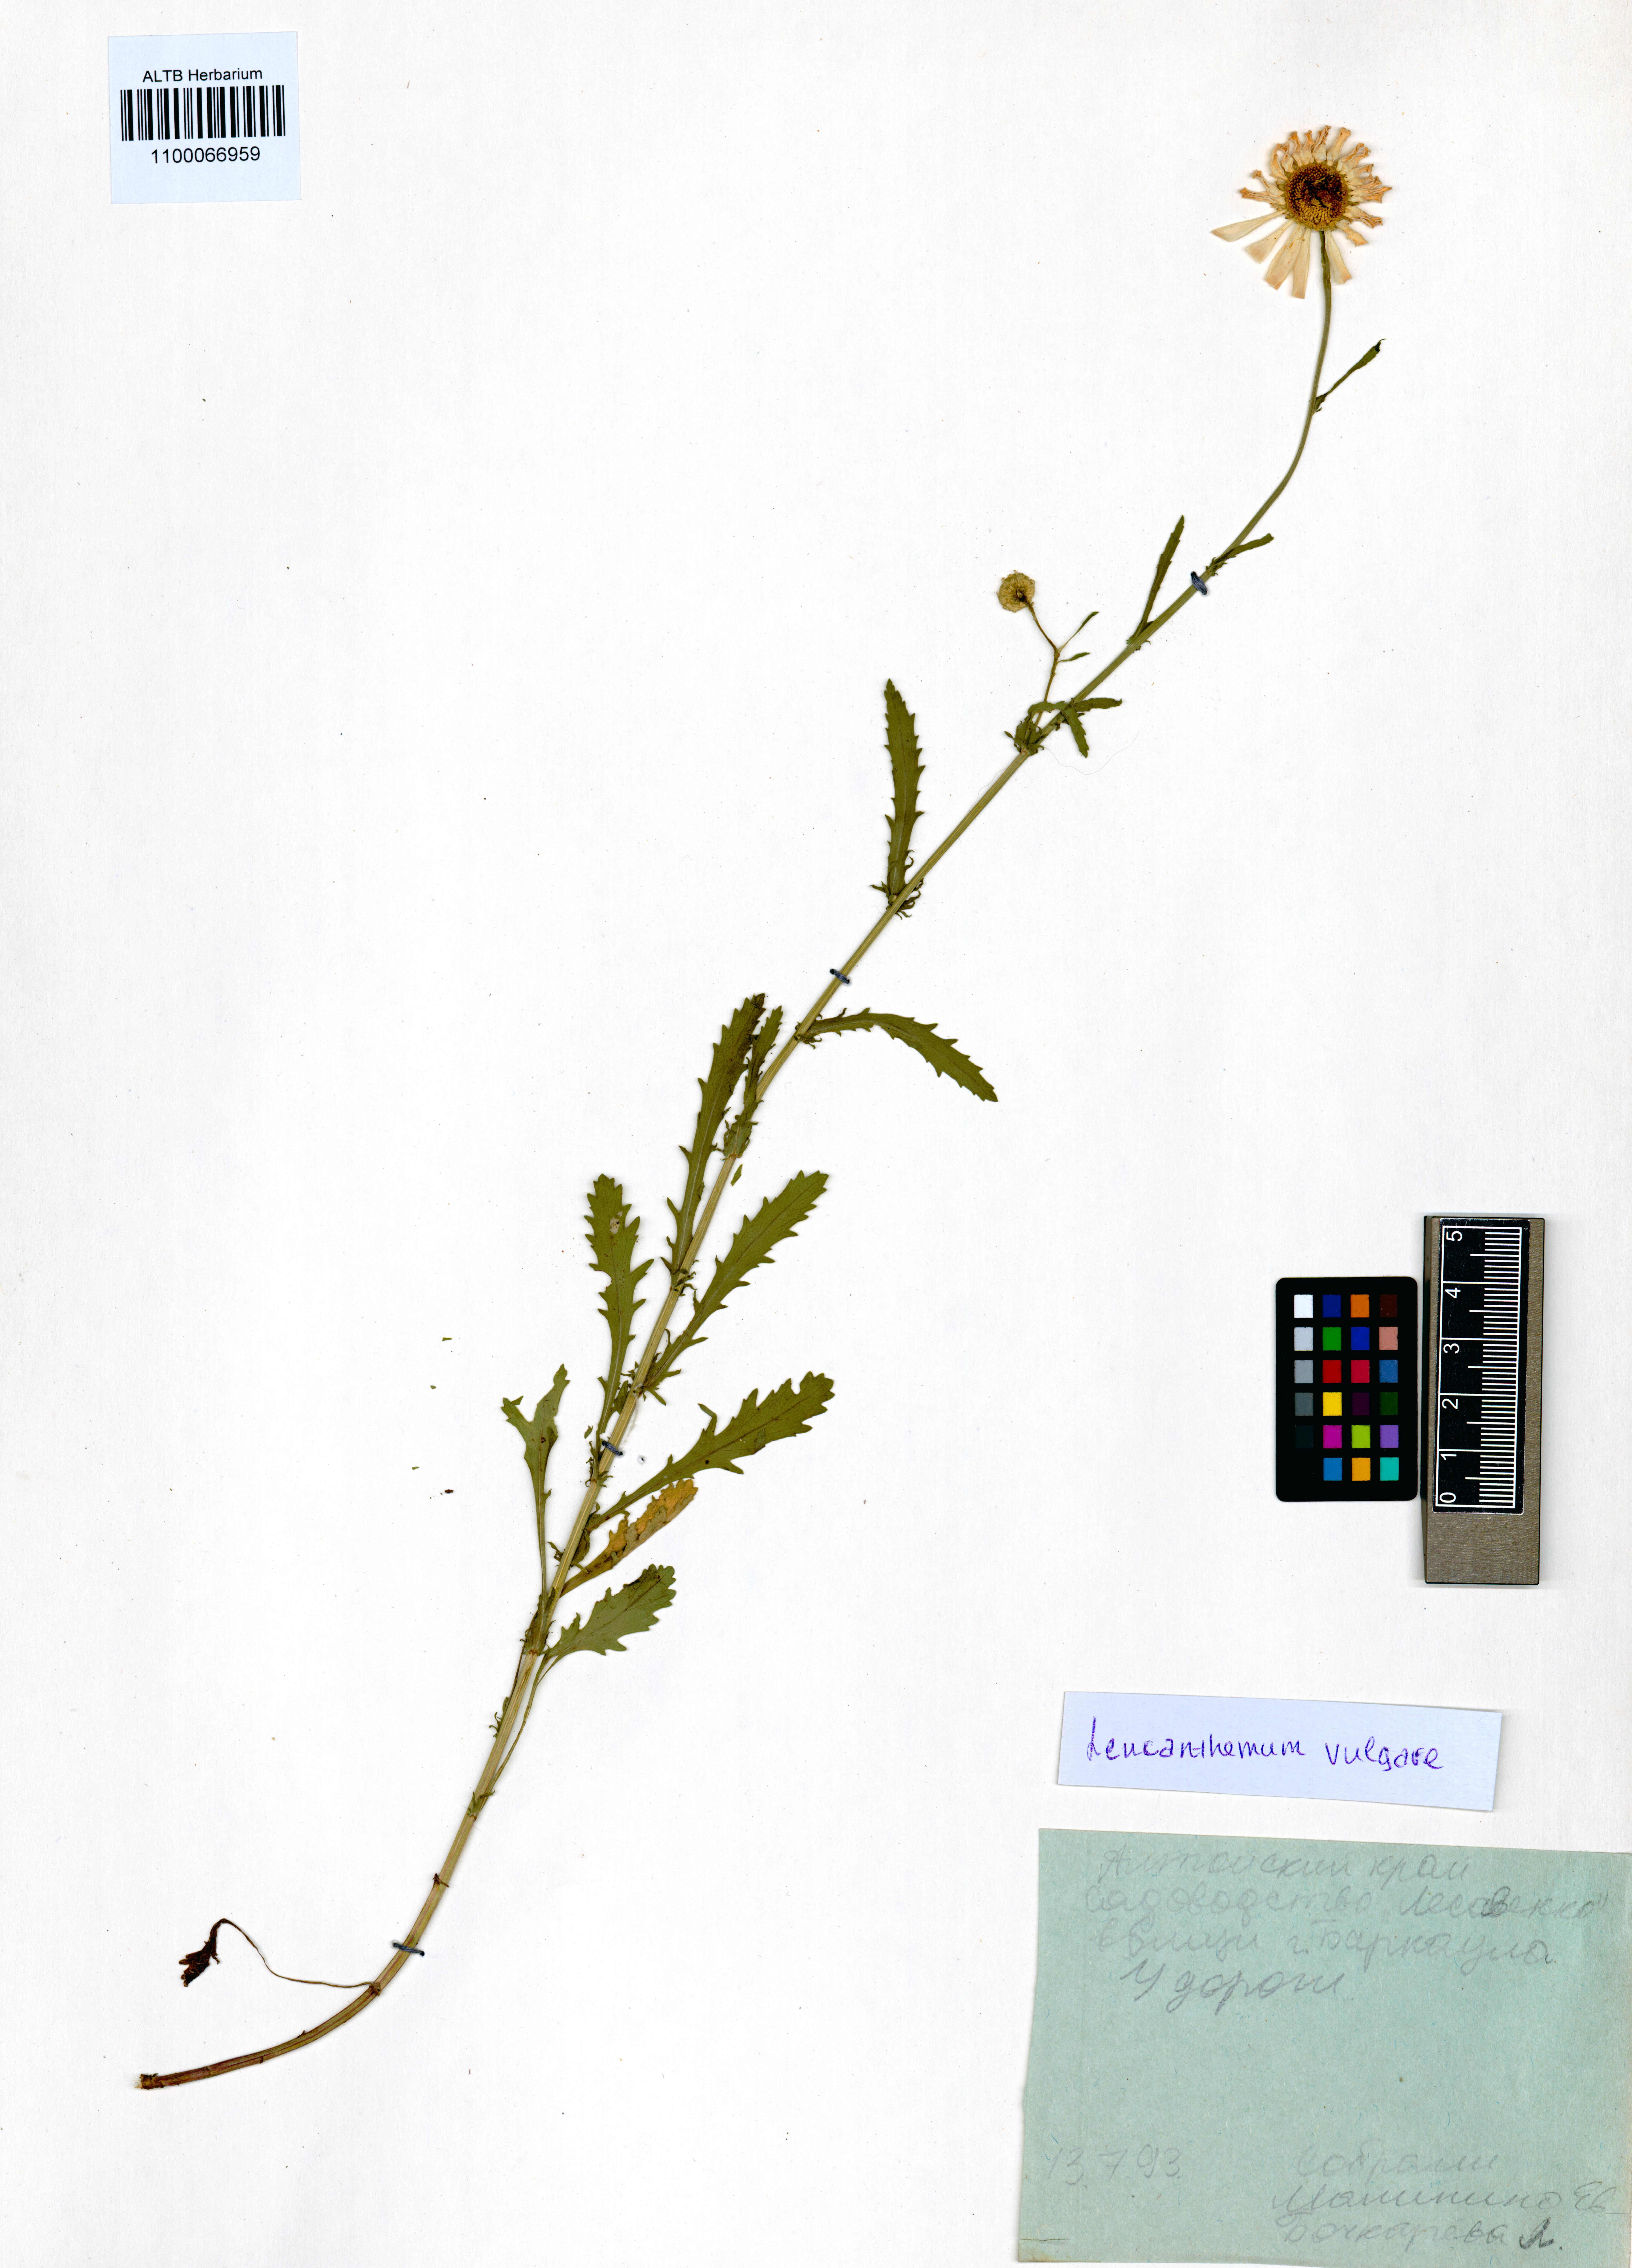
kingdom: Plantae
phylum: Tracheophyta
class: Magnoliopsida
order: Asterales
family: Asteraceae
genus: Leucanthemum
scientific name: Leucanthemum vulgare
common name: Oxeye daisy
